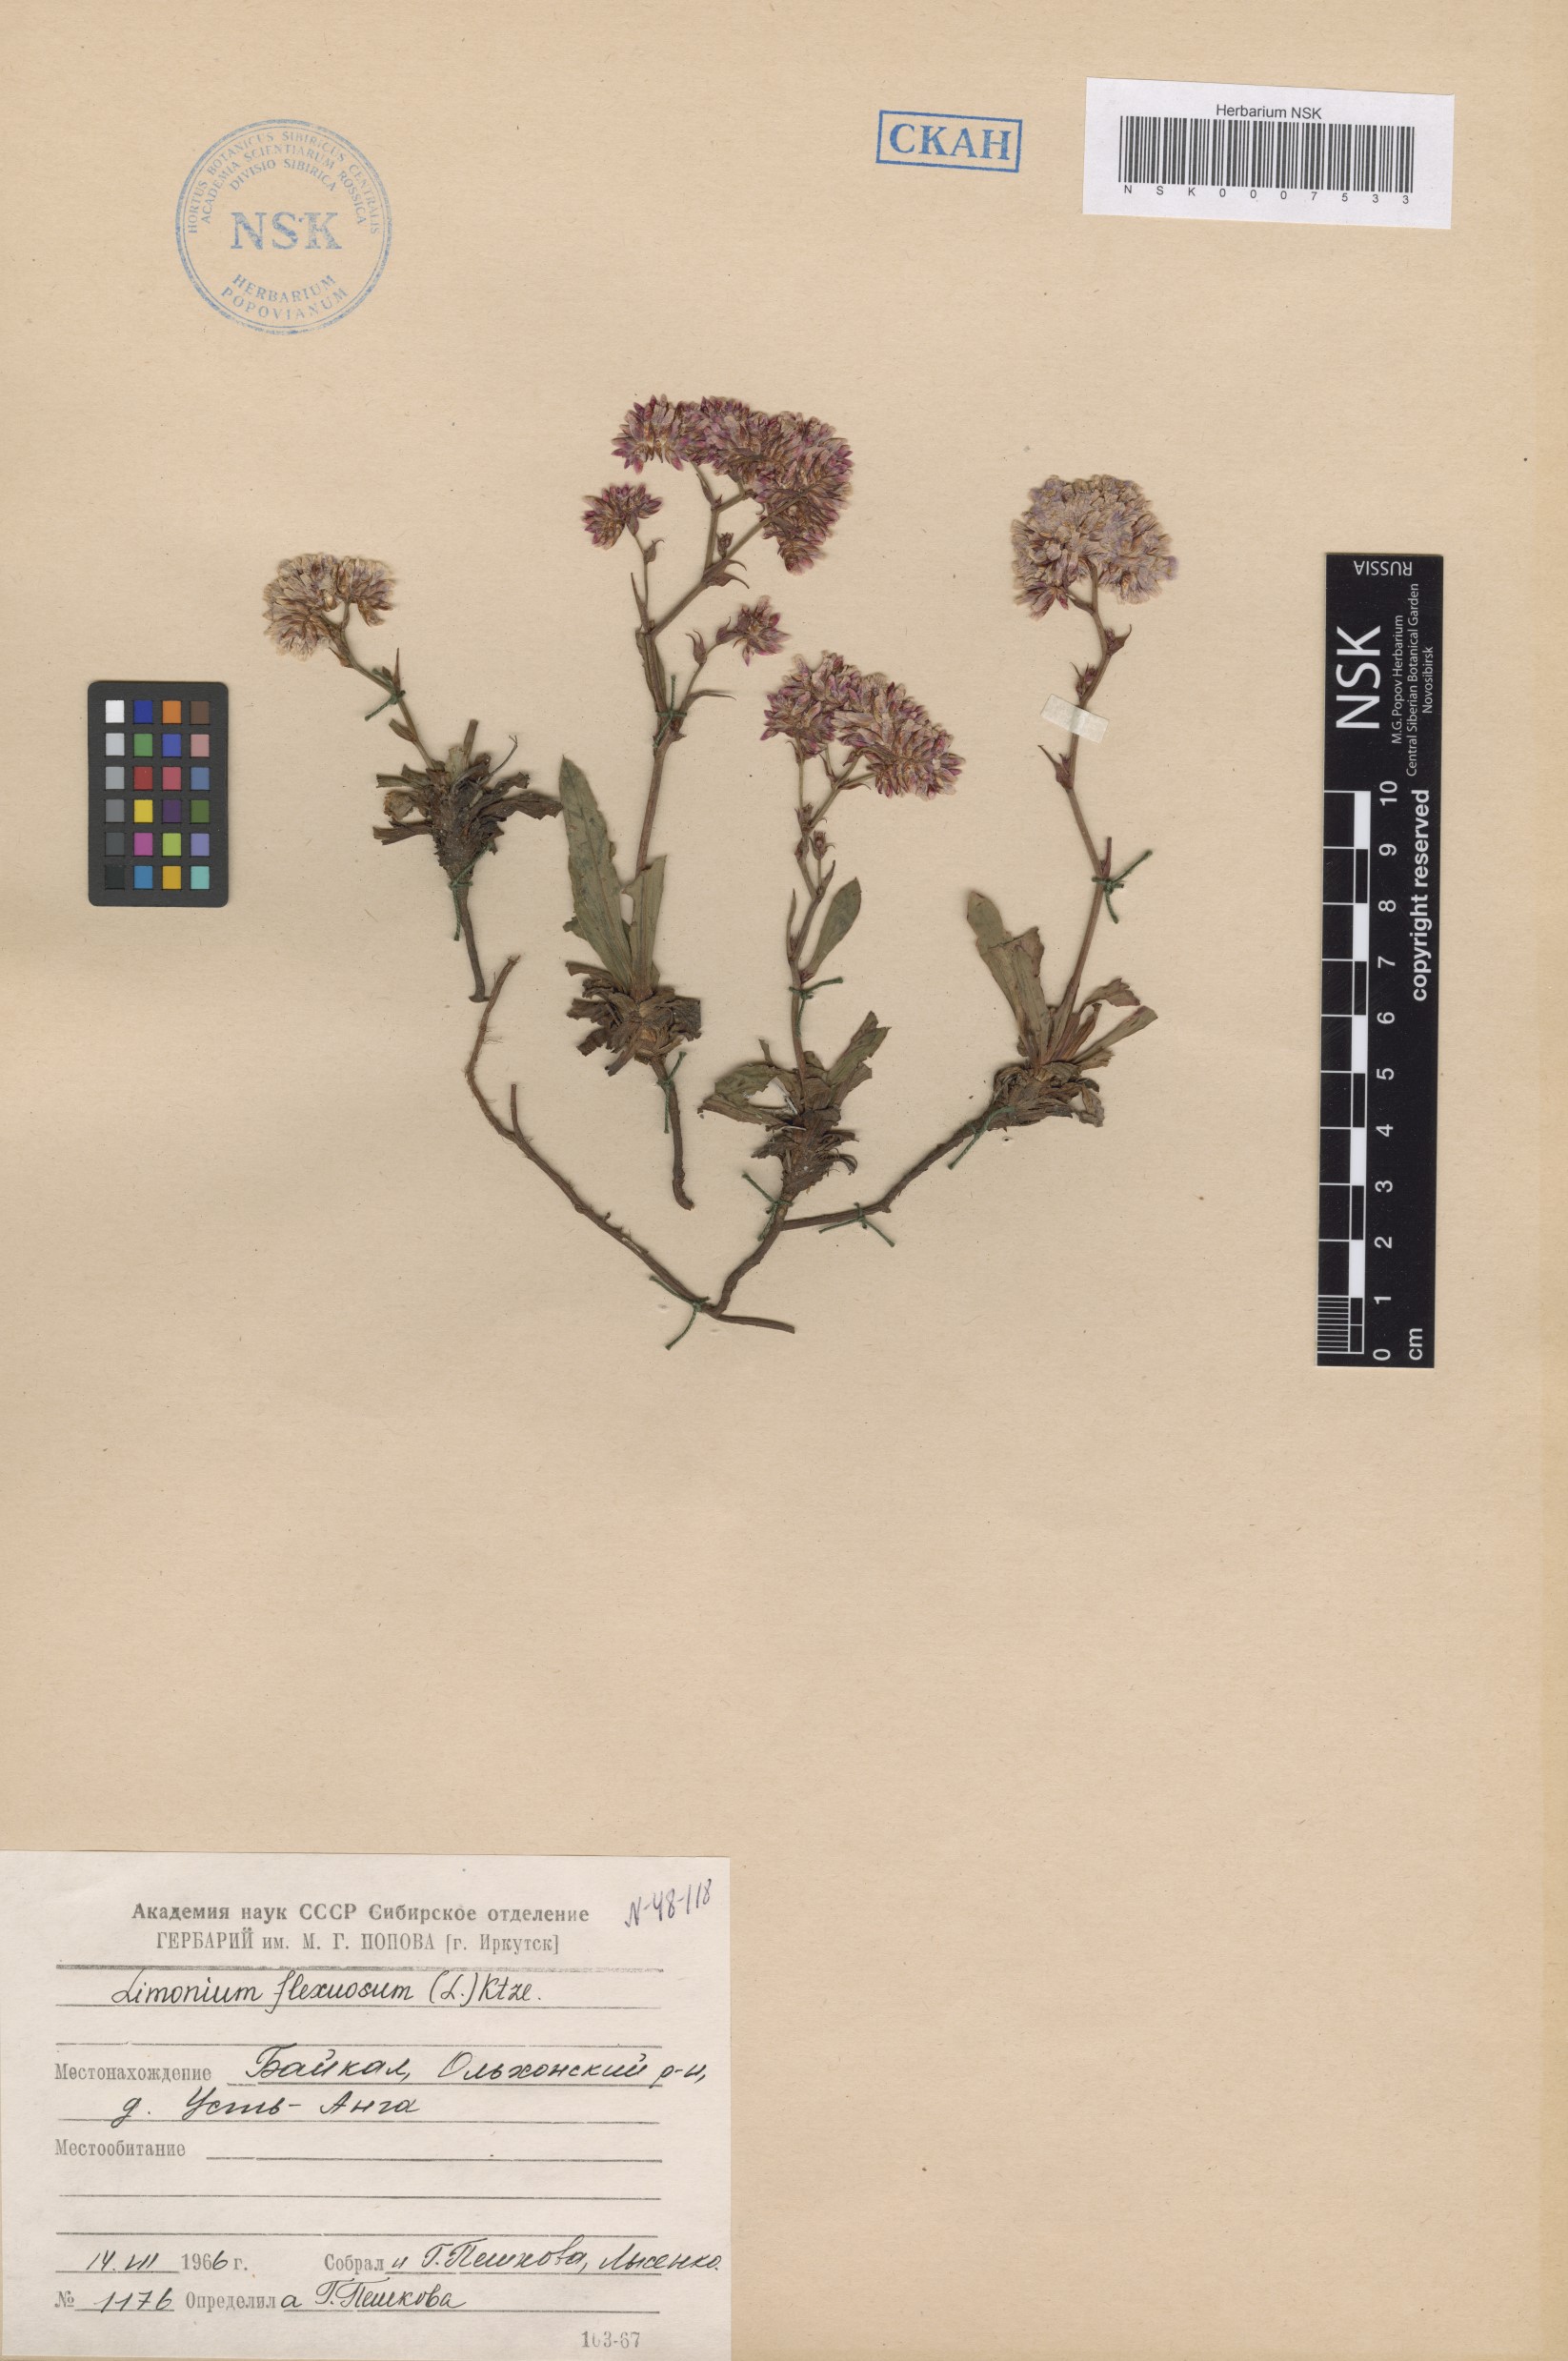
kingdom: Plantae
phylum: Tracheophyta
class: Magnoliopsida
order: Caryophyllales
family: Plumbaginaceae
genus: Limonium
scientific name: Limonium flexuosum
